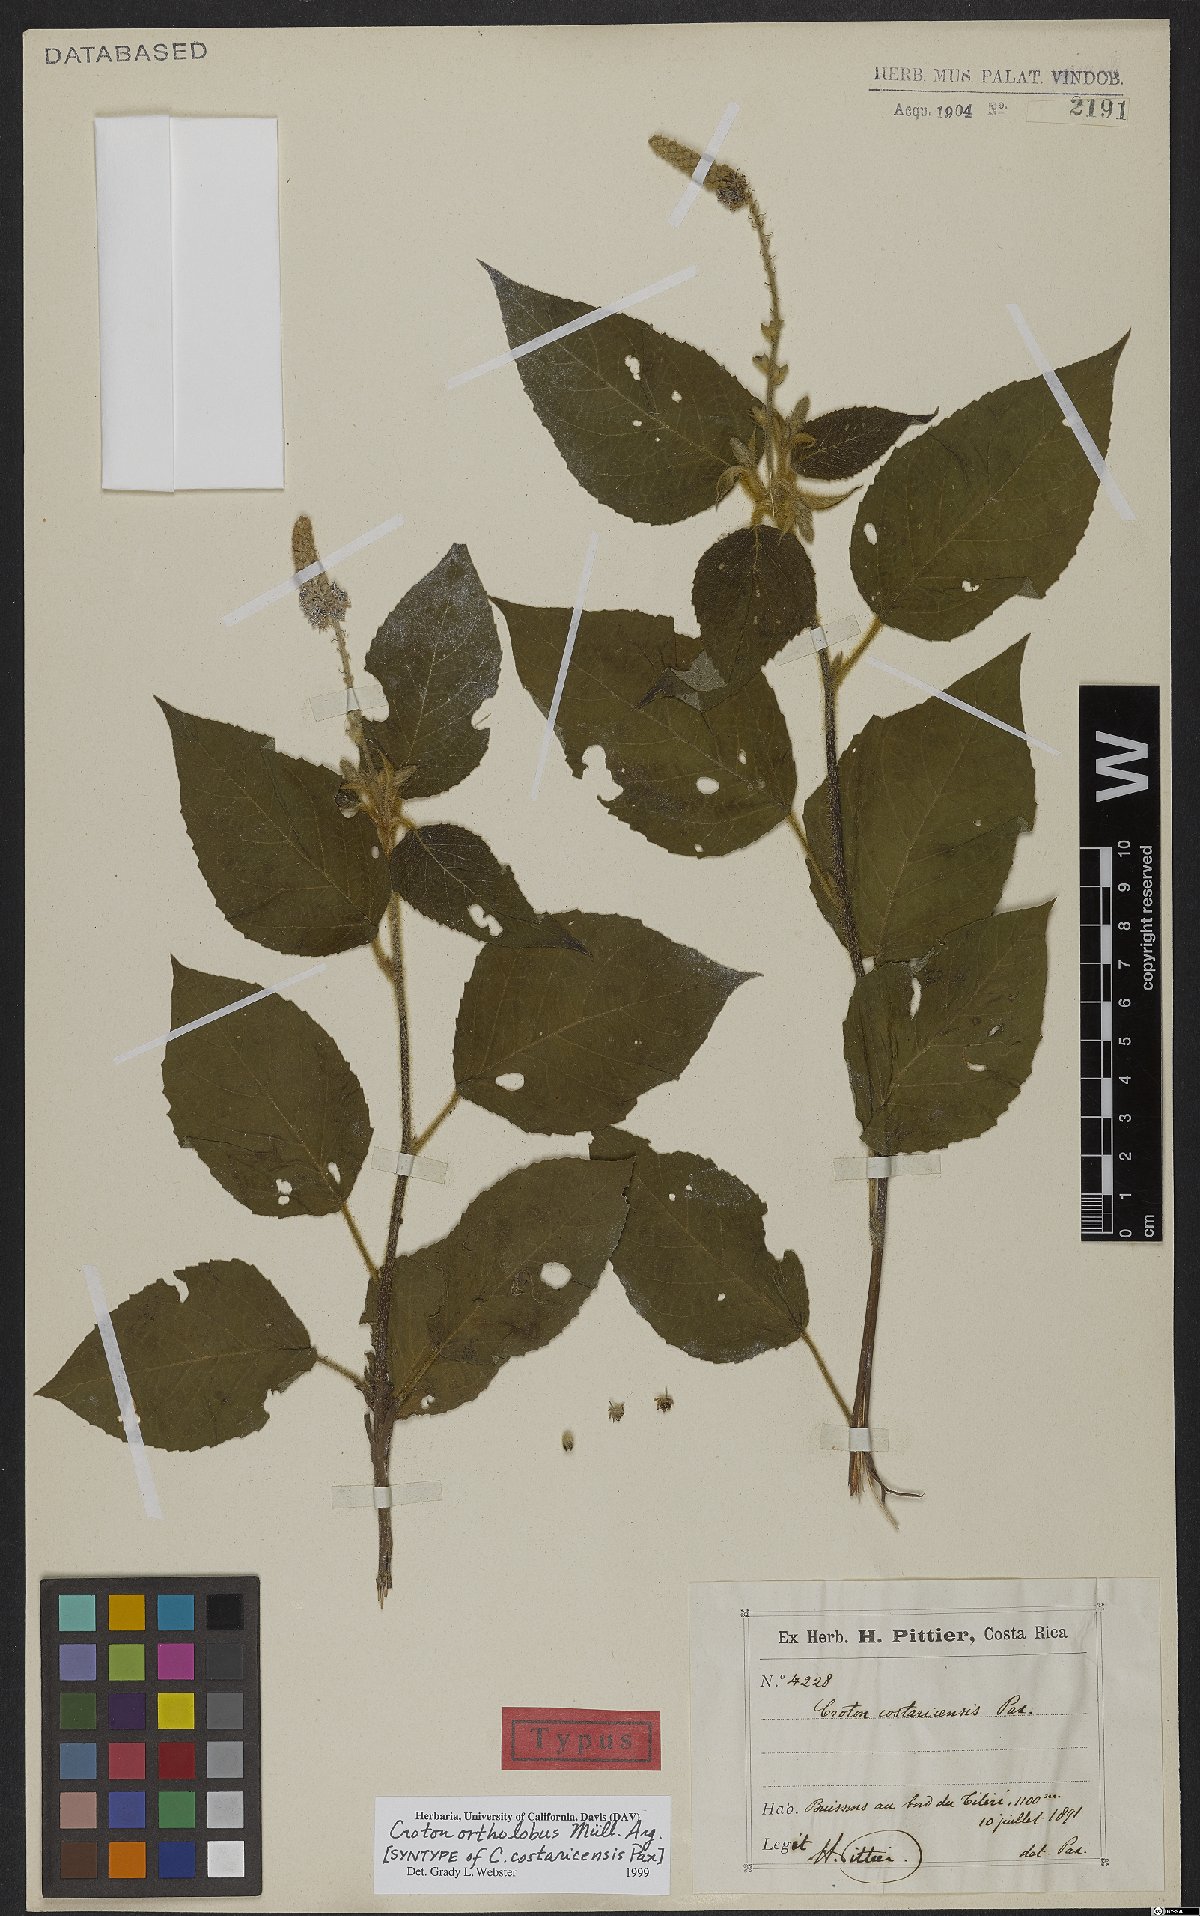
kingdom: Plantae
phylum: Tracheophyta
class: Magnoliopsida
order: Malpighiales
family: Euphorbiaceae
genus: Croton
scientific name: Croton ortholobus
